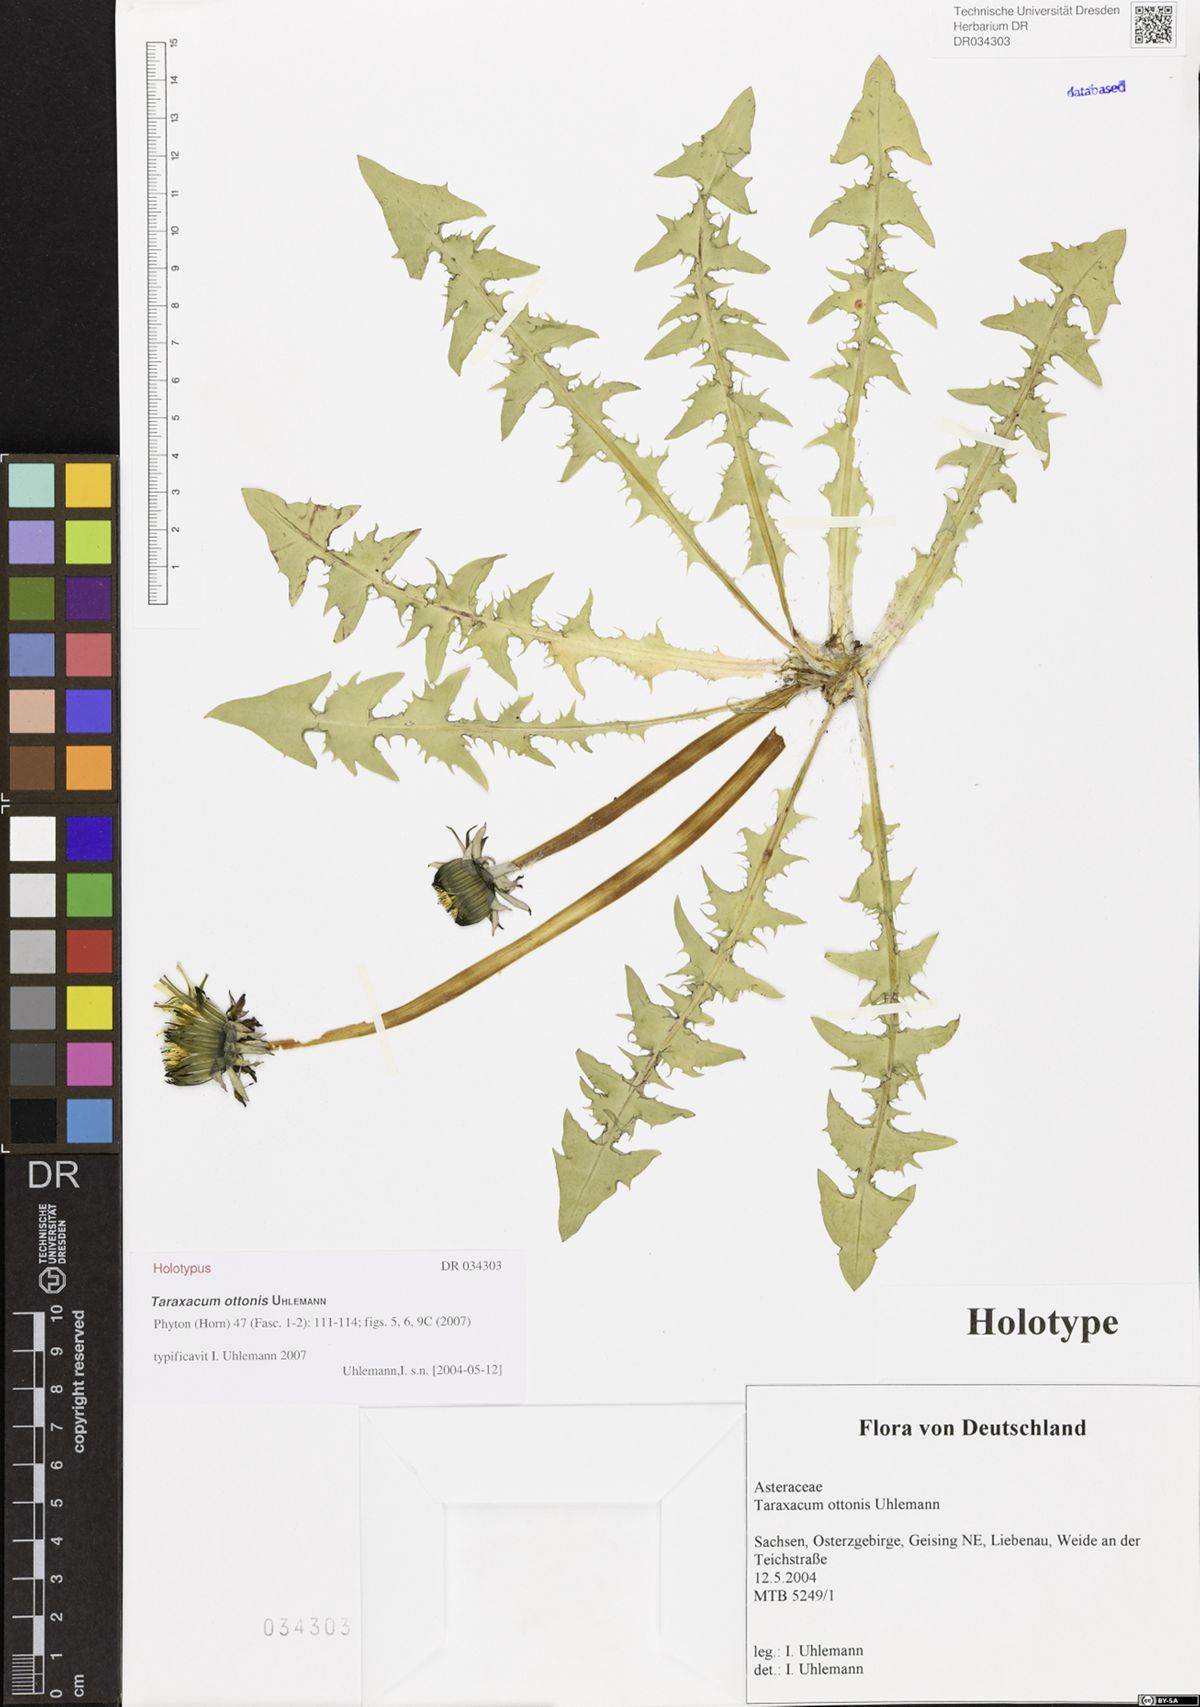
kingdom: Plantae
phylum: Tracheophyta
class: Magnoliopsida
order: Asterales
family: Asteraceae
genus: Taraxacum
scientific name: Taraxacum ottonis
